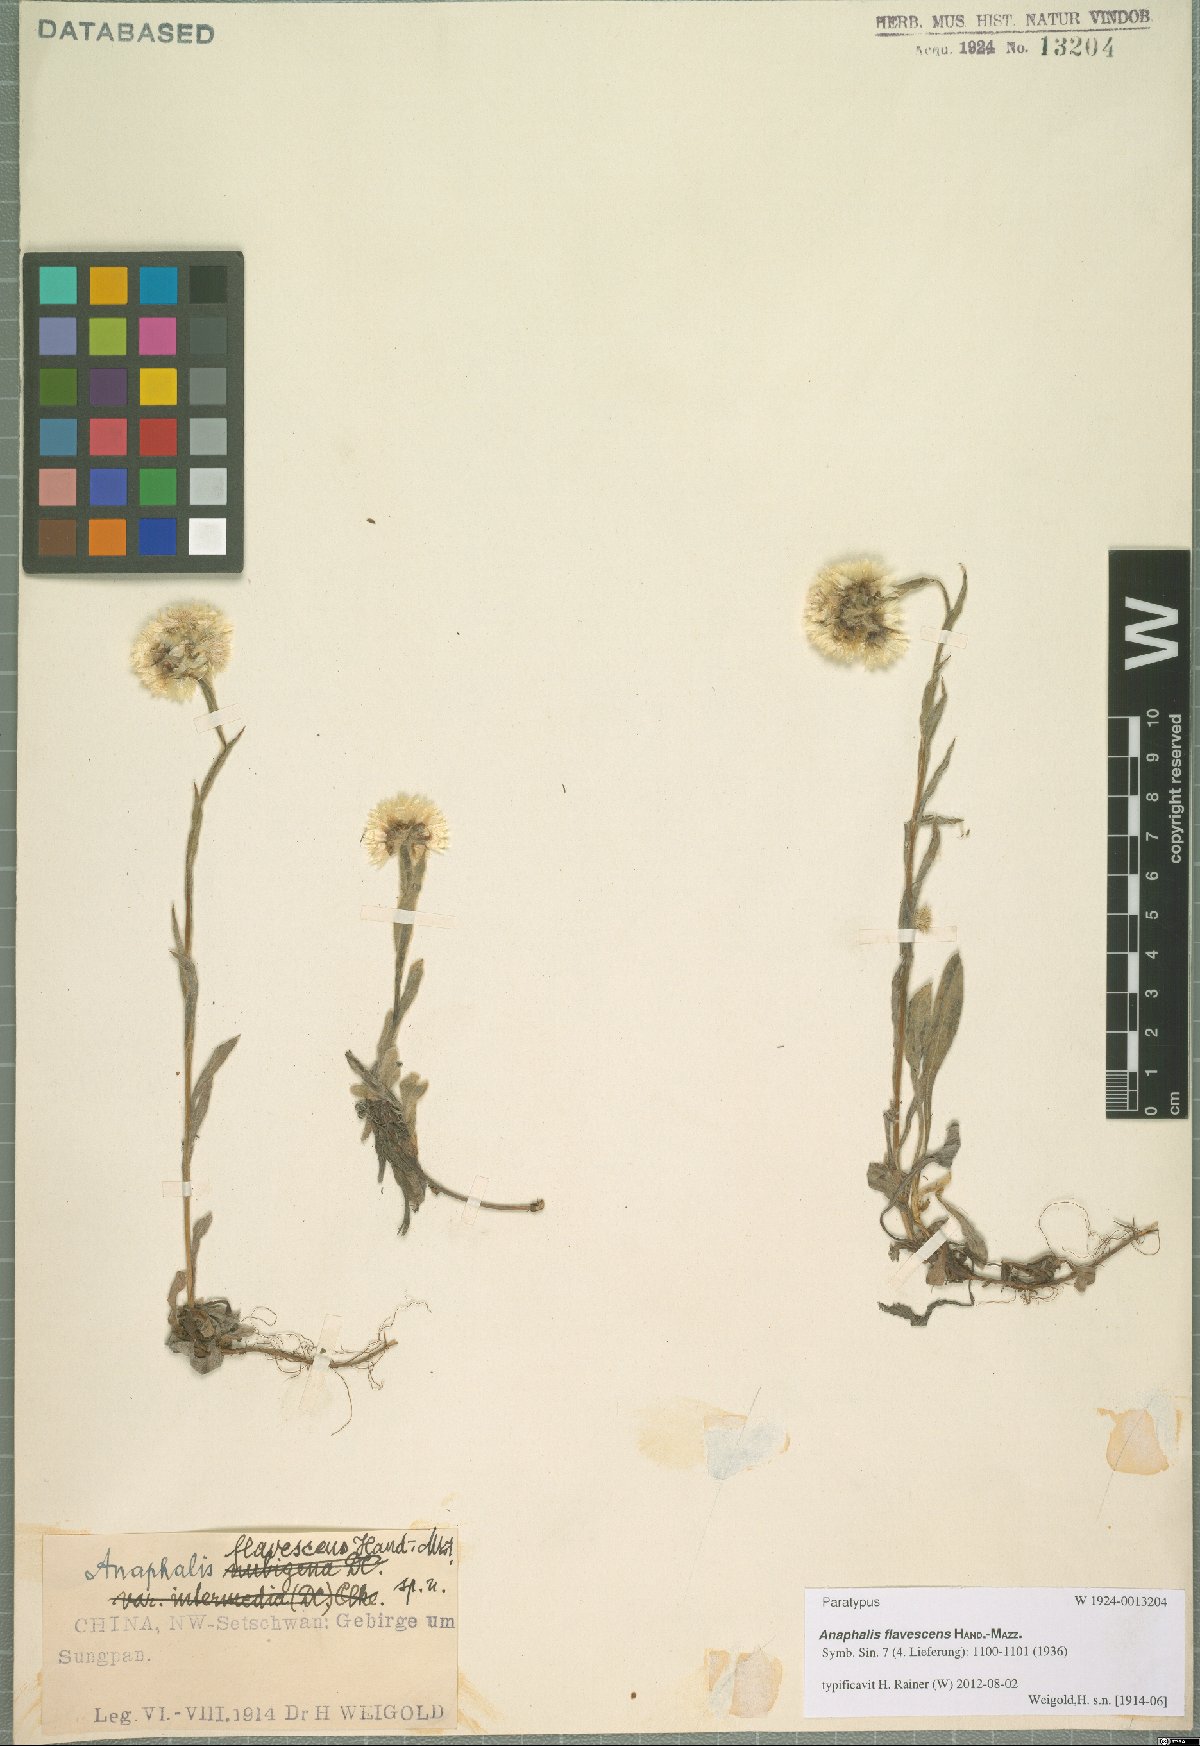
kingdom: Plantae
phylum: Tracheophyta
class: Magnoliopsida
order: Asterales
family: Asteraceae
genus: Anaphalis
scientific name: Anaphalis flavescens
